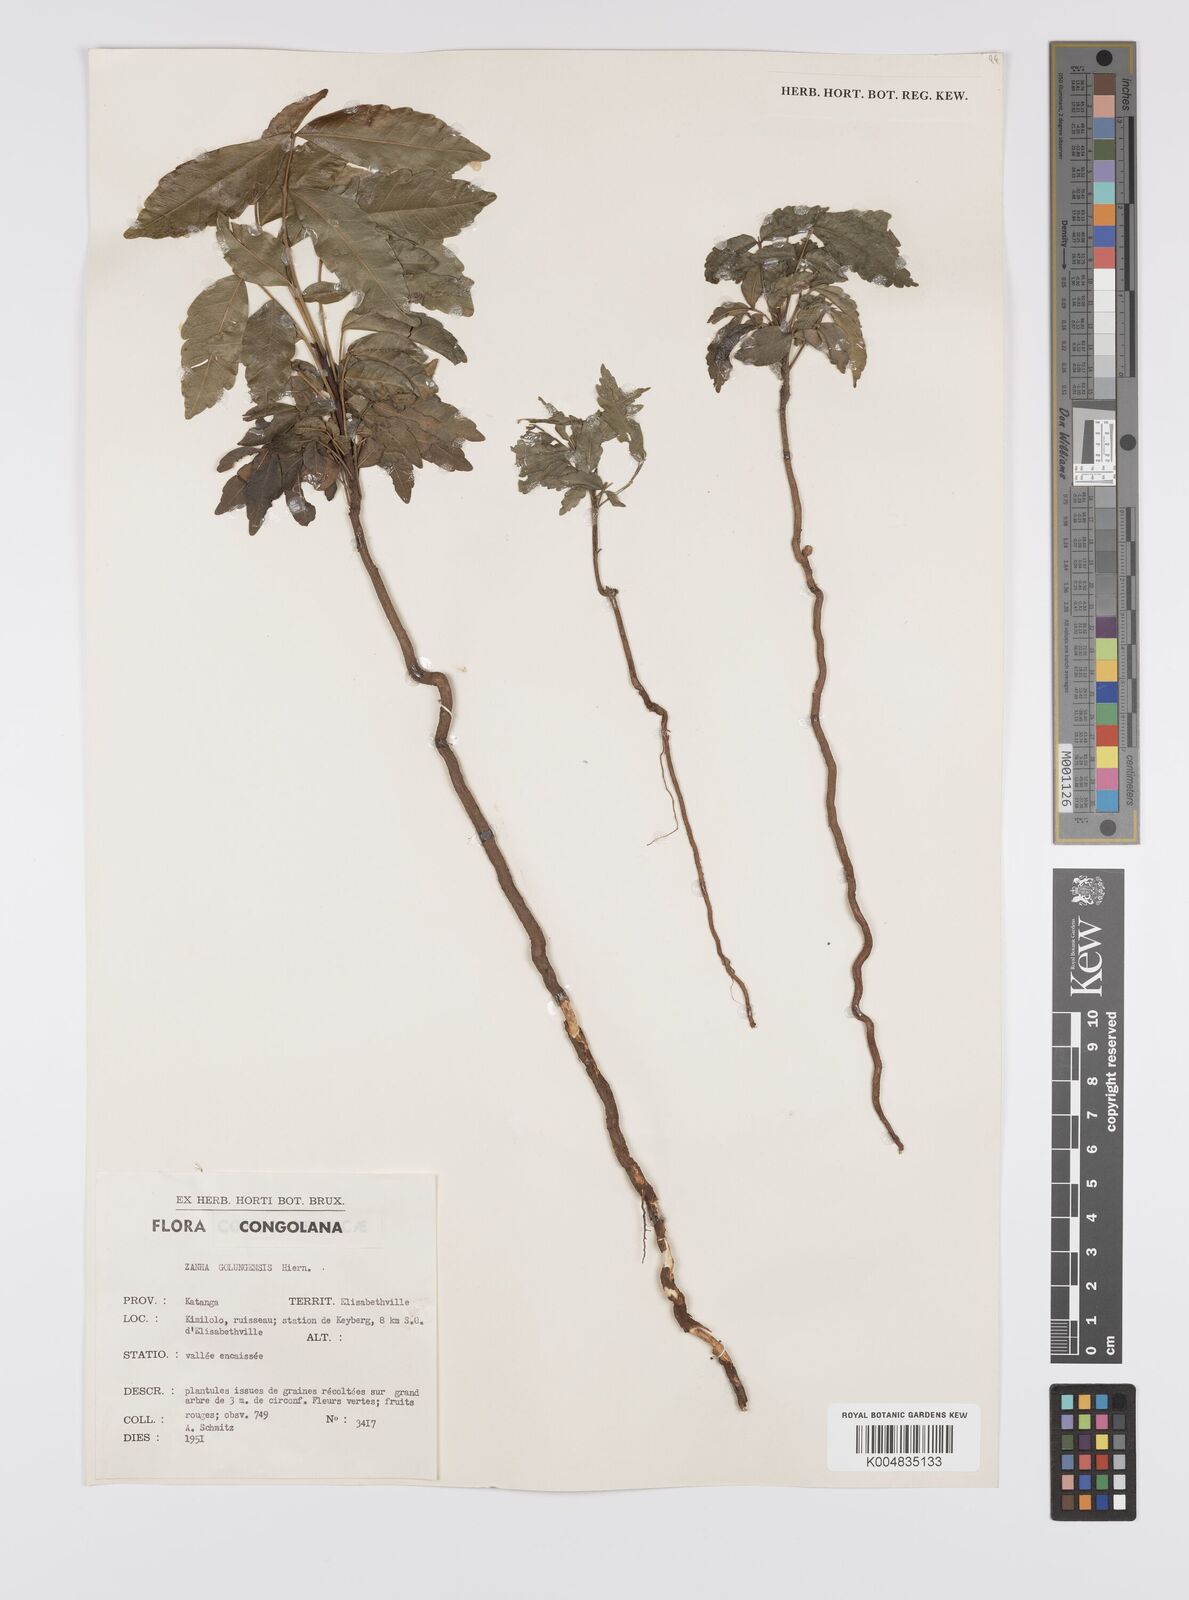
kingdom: Plantae
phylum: Tracheophyta
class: Magnoliopsida
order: Sapindales
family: Sapindaceae
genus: Zanha
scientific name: Zanha golungensis
